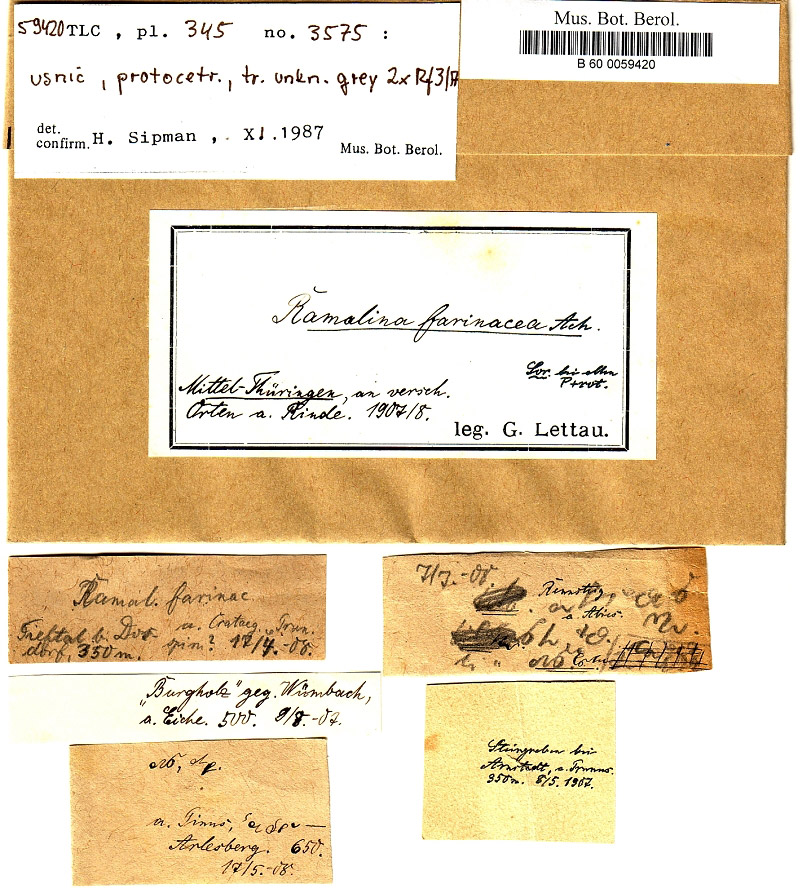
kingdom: Fungi
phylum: Ascomycota
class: Lecanoromycetes
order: Lecanorales
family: Ramalinaceae
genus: Ramalina
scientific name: Ramalina farinacea
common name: Farinose cartilage lichen
